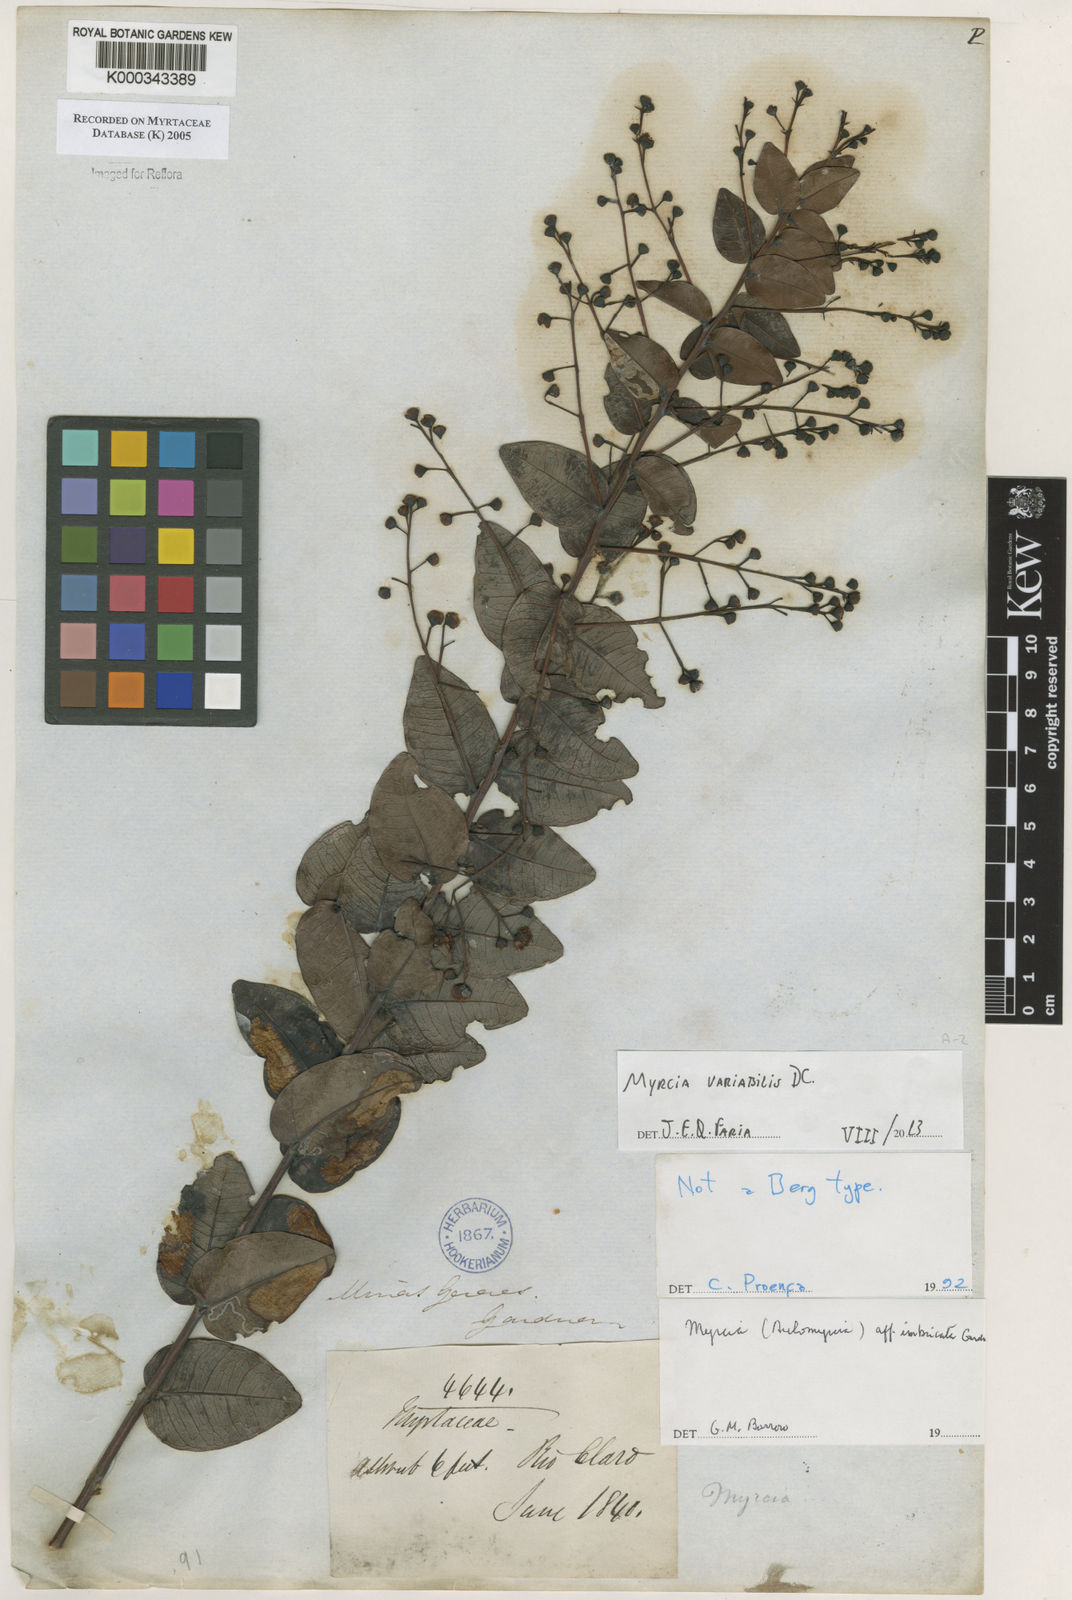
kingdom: Plantae
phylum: Tracheophyta
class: Magnoliopsida
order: Myrtales
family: Myrtaceae
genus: Myrcia
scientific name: Myrcia racemulosa
